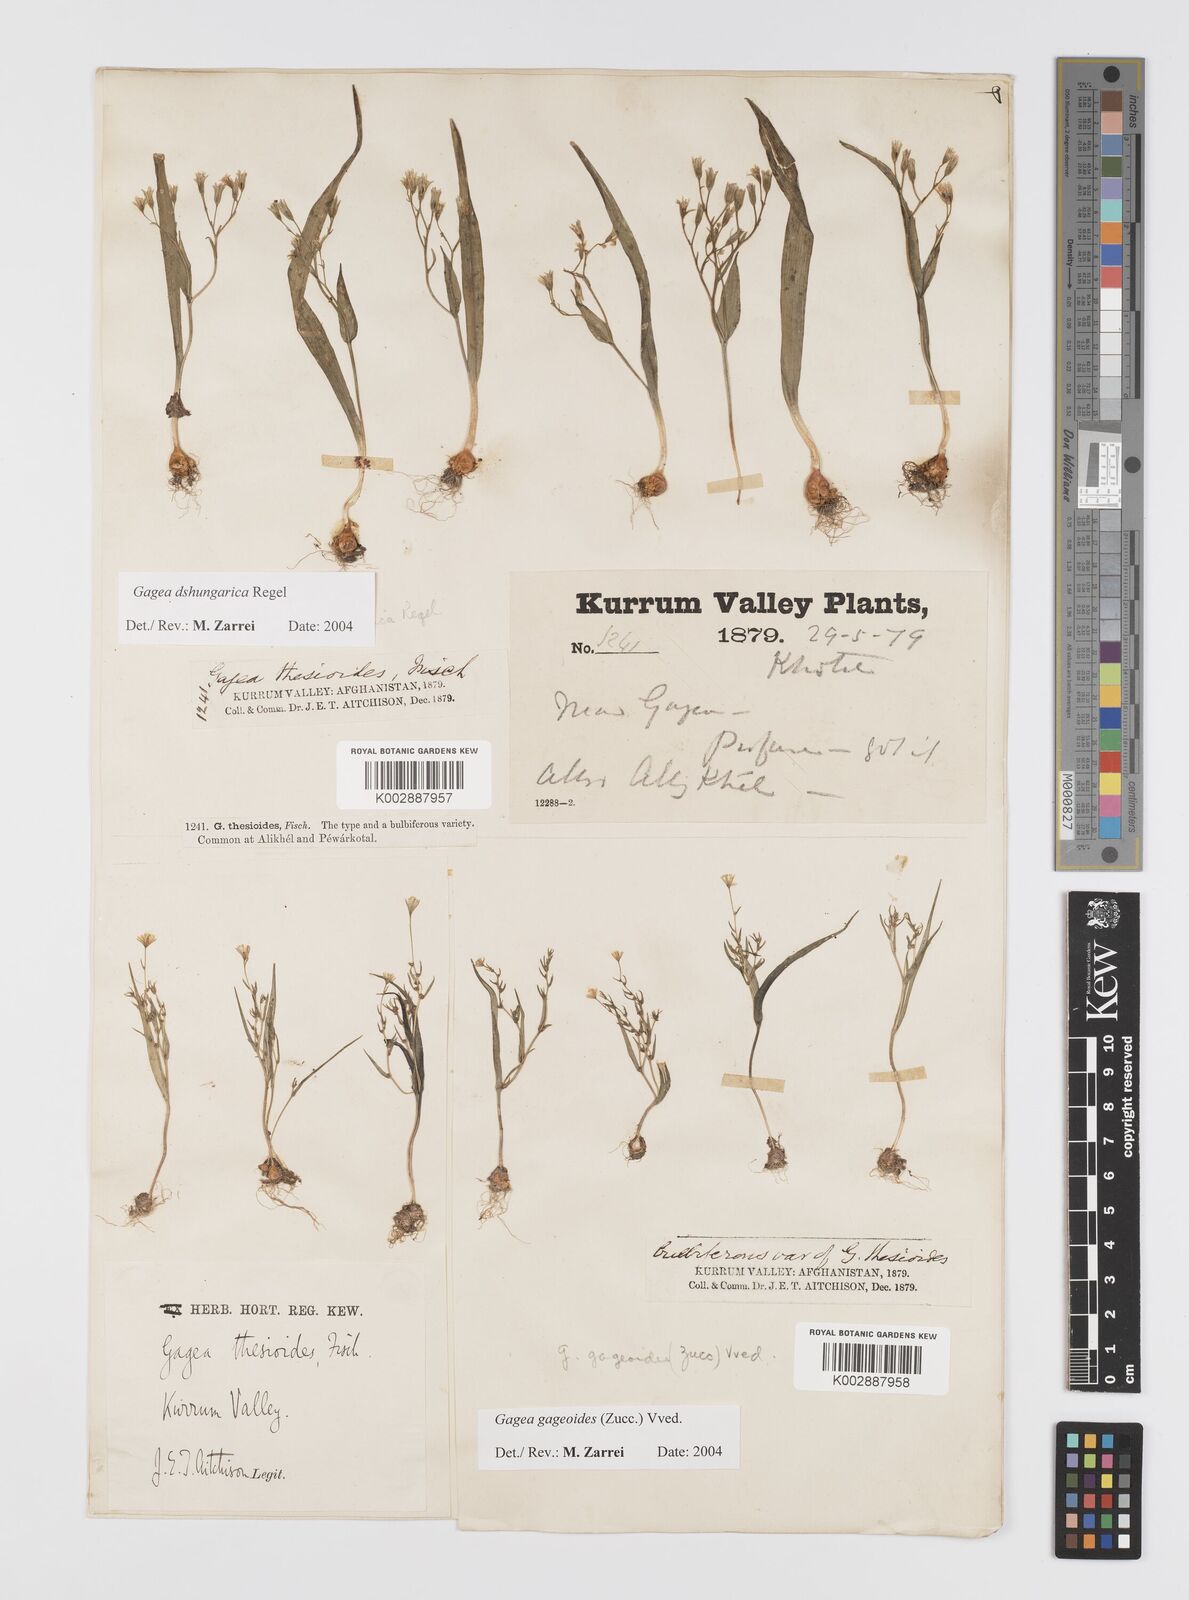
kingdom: Plantae
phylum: Tracheophyta
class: Liliopsida
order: Liliales
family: Liliaceae
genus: Gagea
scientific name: Gagea dschungarica
